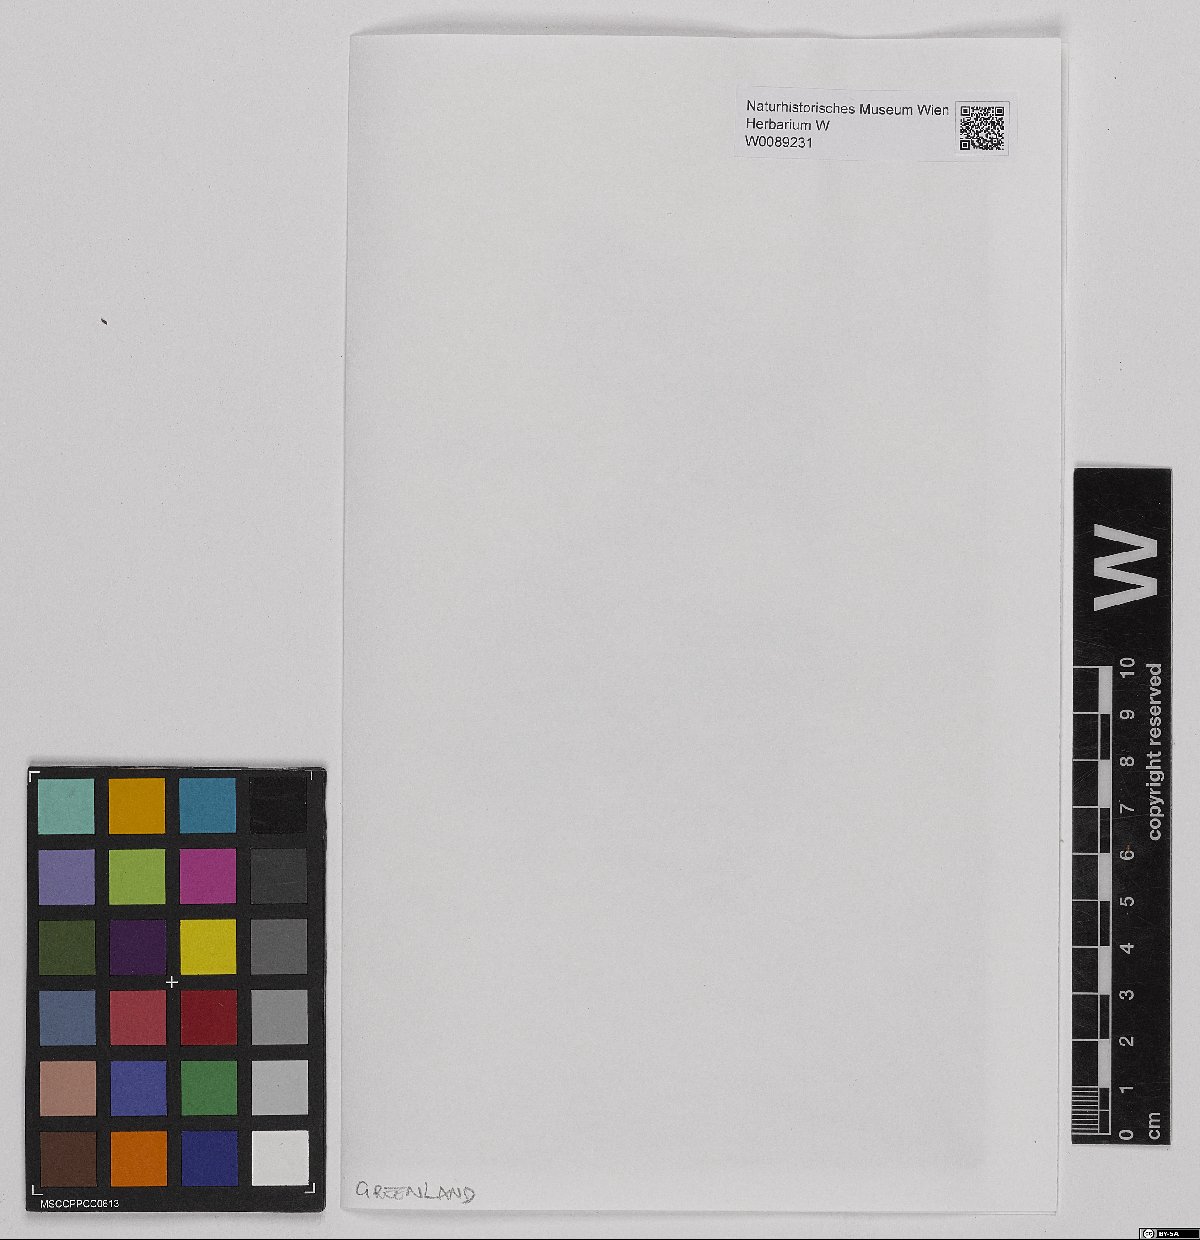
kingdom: Plantae
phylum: Bryophyta
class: Sphagnopsida
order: Sphagnales
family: Sphagnaceae
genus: Sphagnum
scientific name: Sphagnum lindbergii
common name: Lindberg's peat moss
